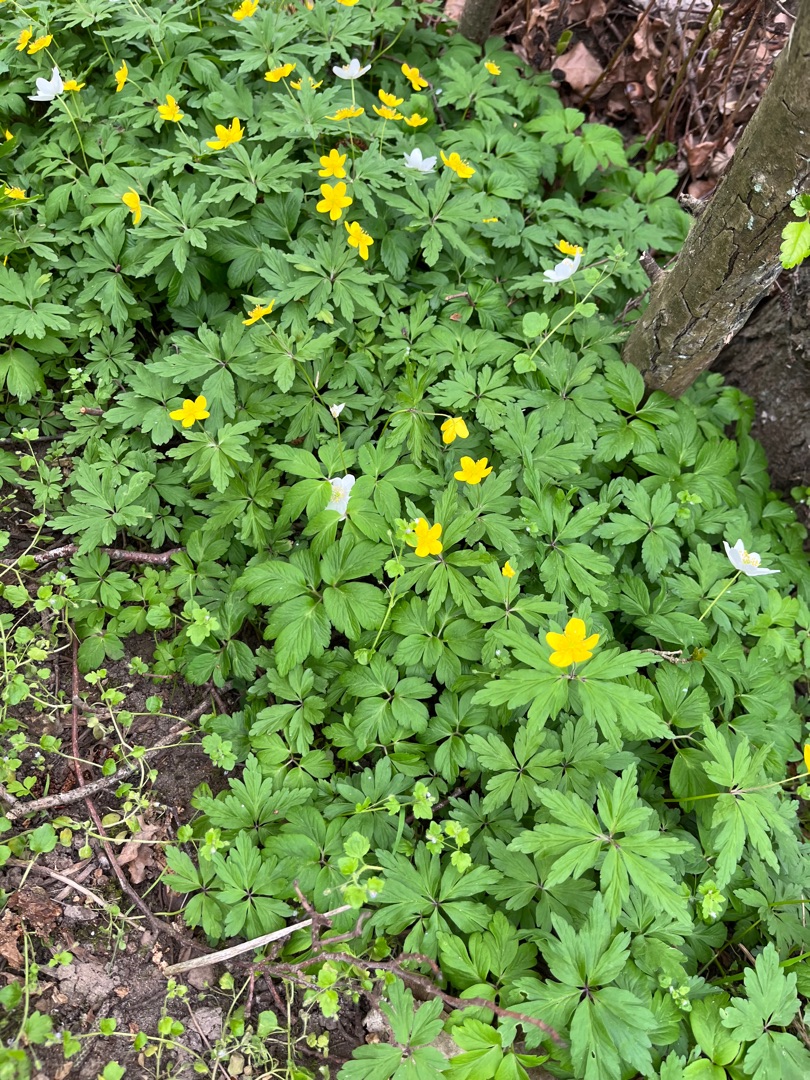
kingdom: Plantae
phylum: Tracheophyta
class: Magnoliopsida
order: Ranunculales
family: Ranunculaceae
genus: Anemone
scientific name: Anemone ranunculoides
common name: Gul anemone
